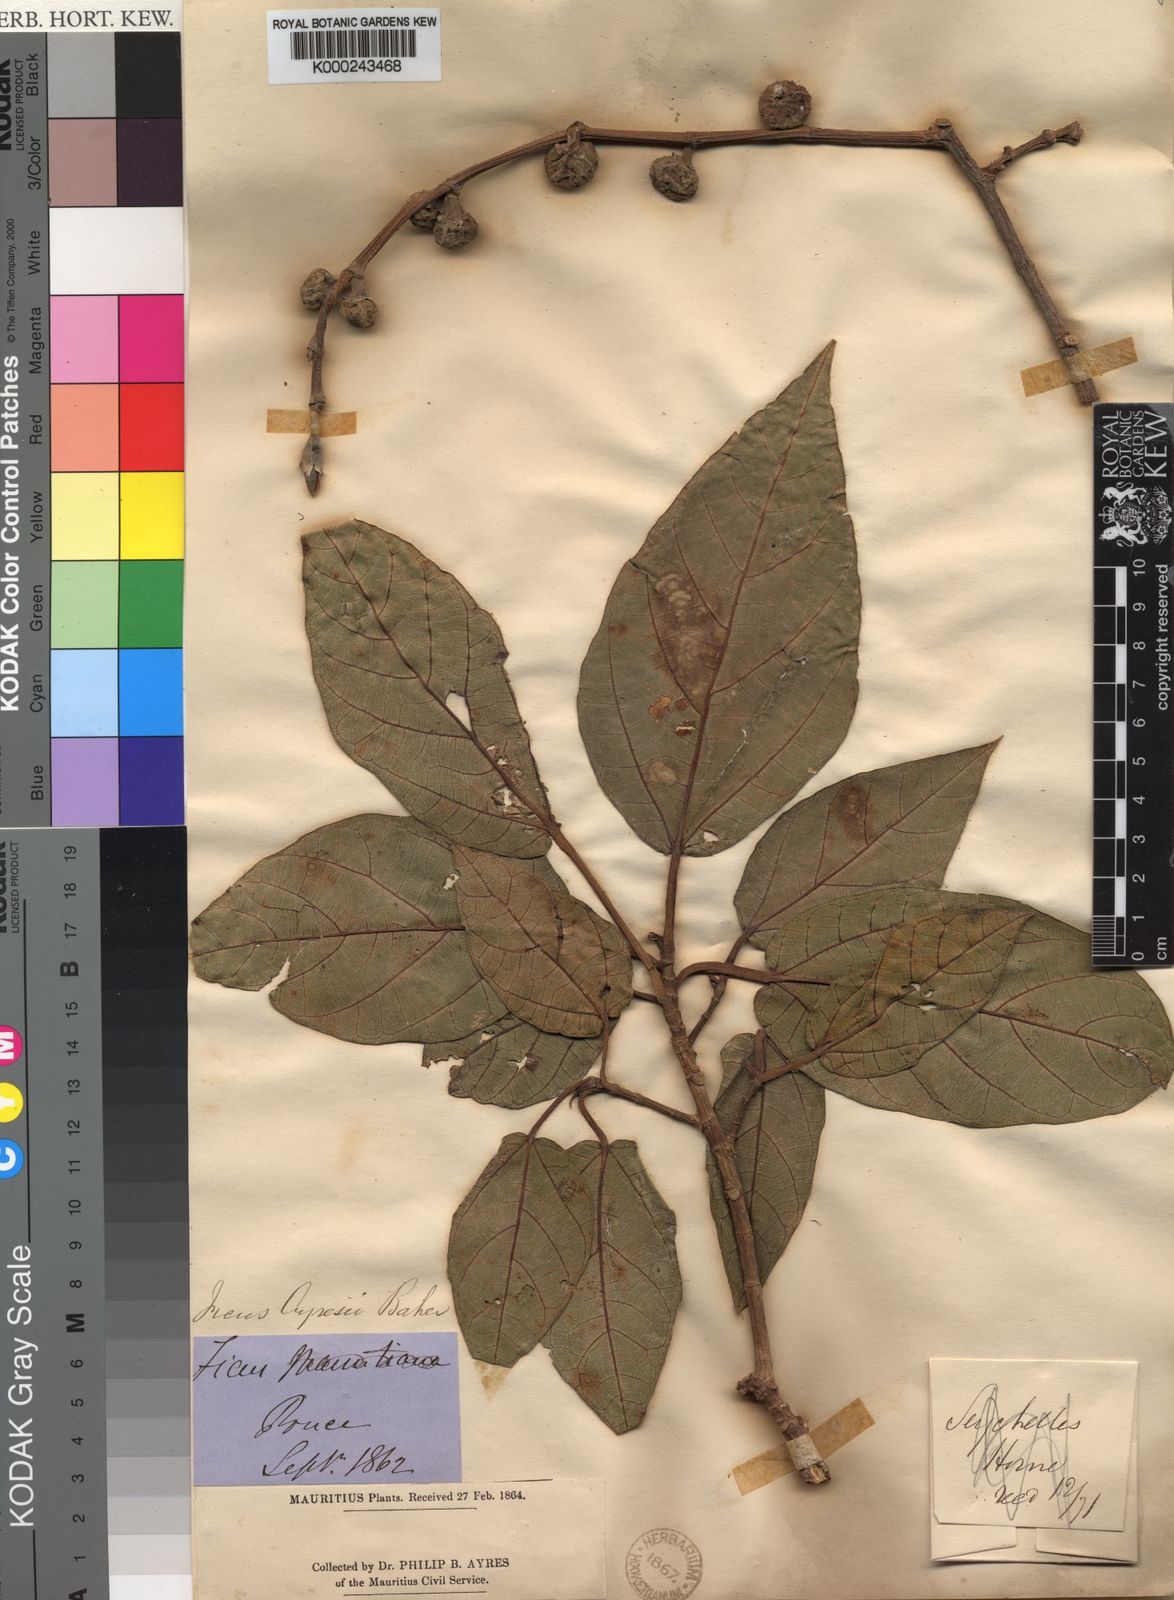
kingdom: Plantae
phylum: Tracheophyta
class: Magnoliopsida
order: Rosales
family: Moraceae
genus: Ficus
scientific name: Ficus mauritiana
